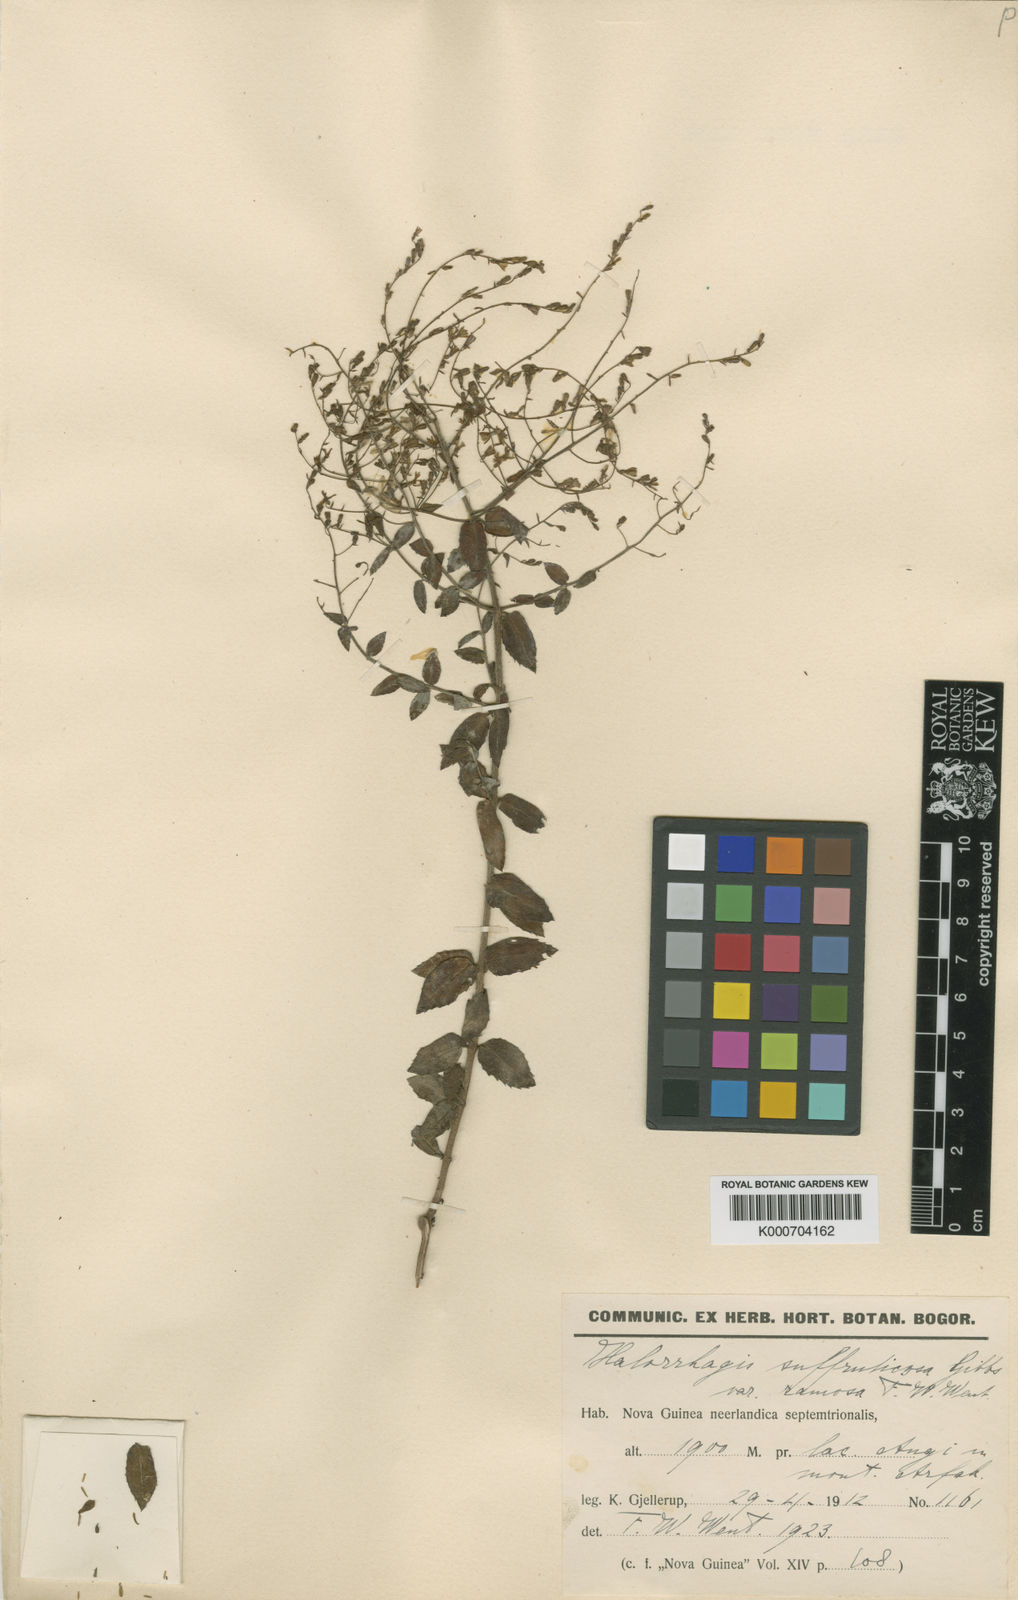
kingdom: Plantae
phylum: Tracheophyta
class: Magnoliopsida
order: Saxifragales
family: Haloragaceae
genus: Gonocarpus
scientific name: Gonocarpus
